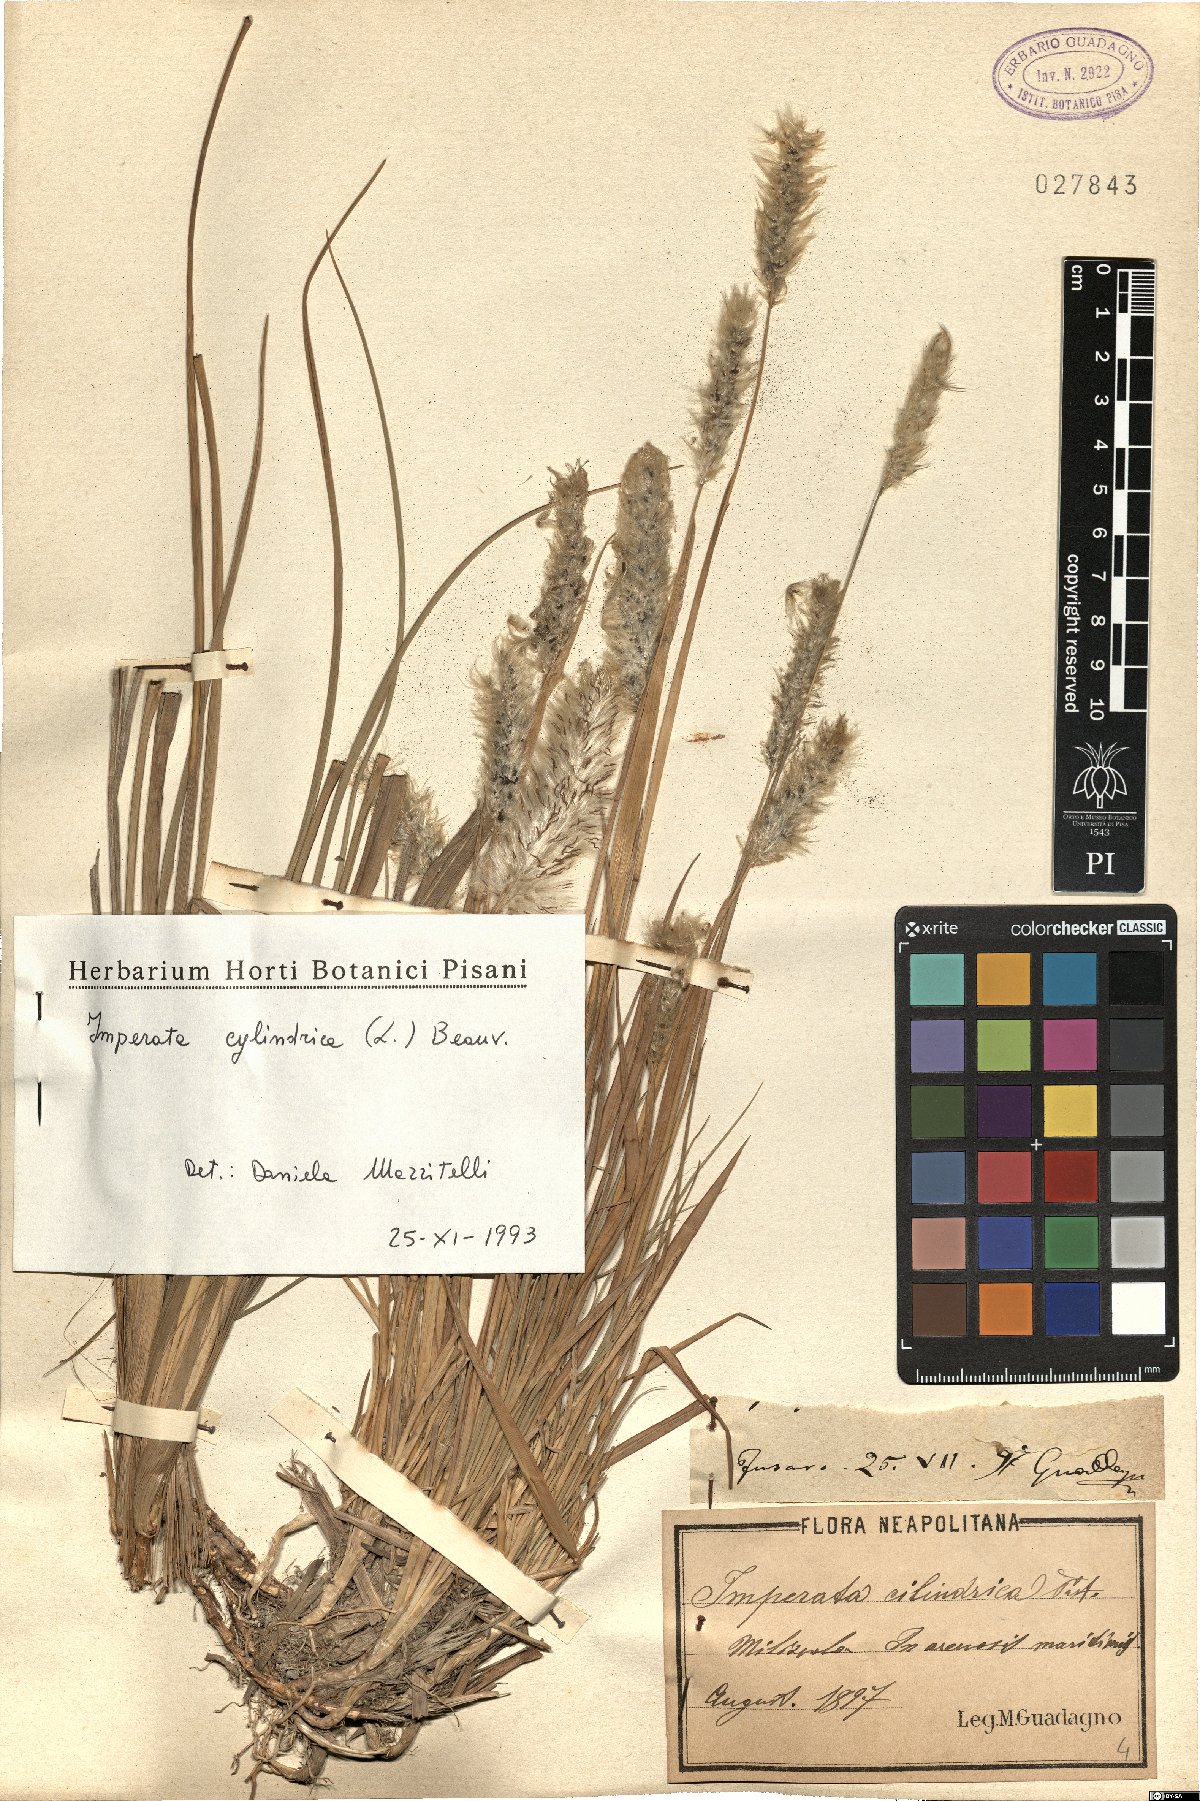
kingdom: Plantae
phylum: Tracheophyta
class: Liliopsida
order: Poales
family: Poaceae
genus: Imperata
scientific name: Imperata cylindrica
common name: Cogongrass
